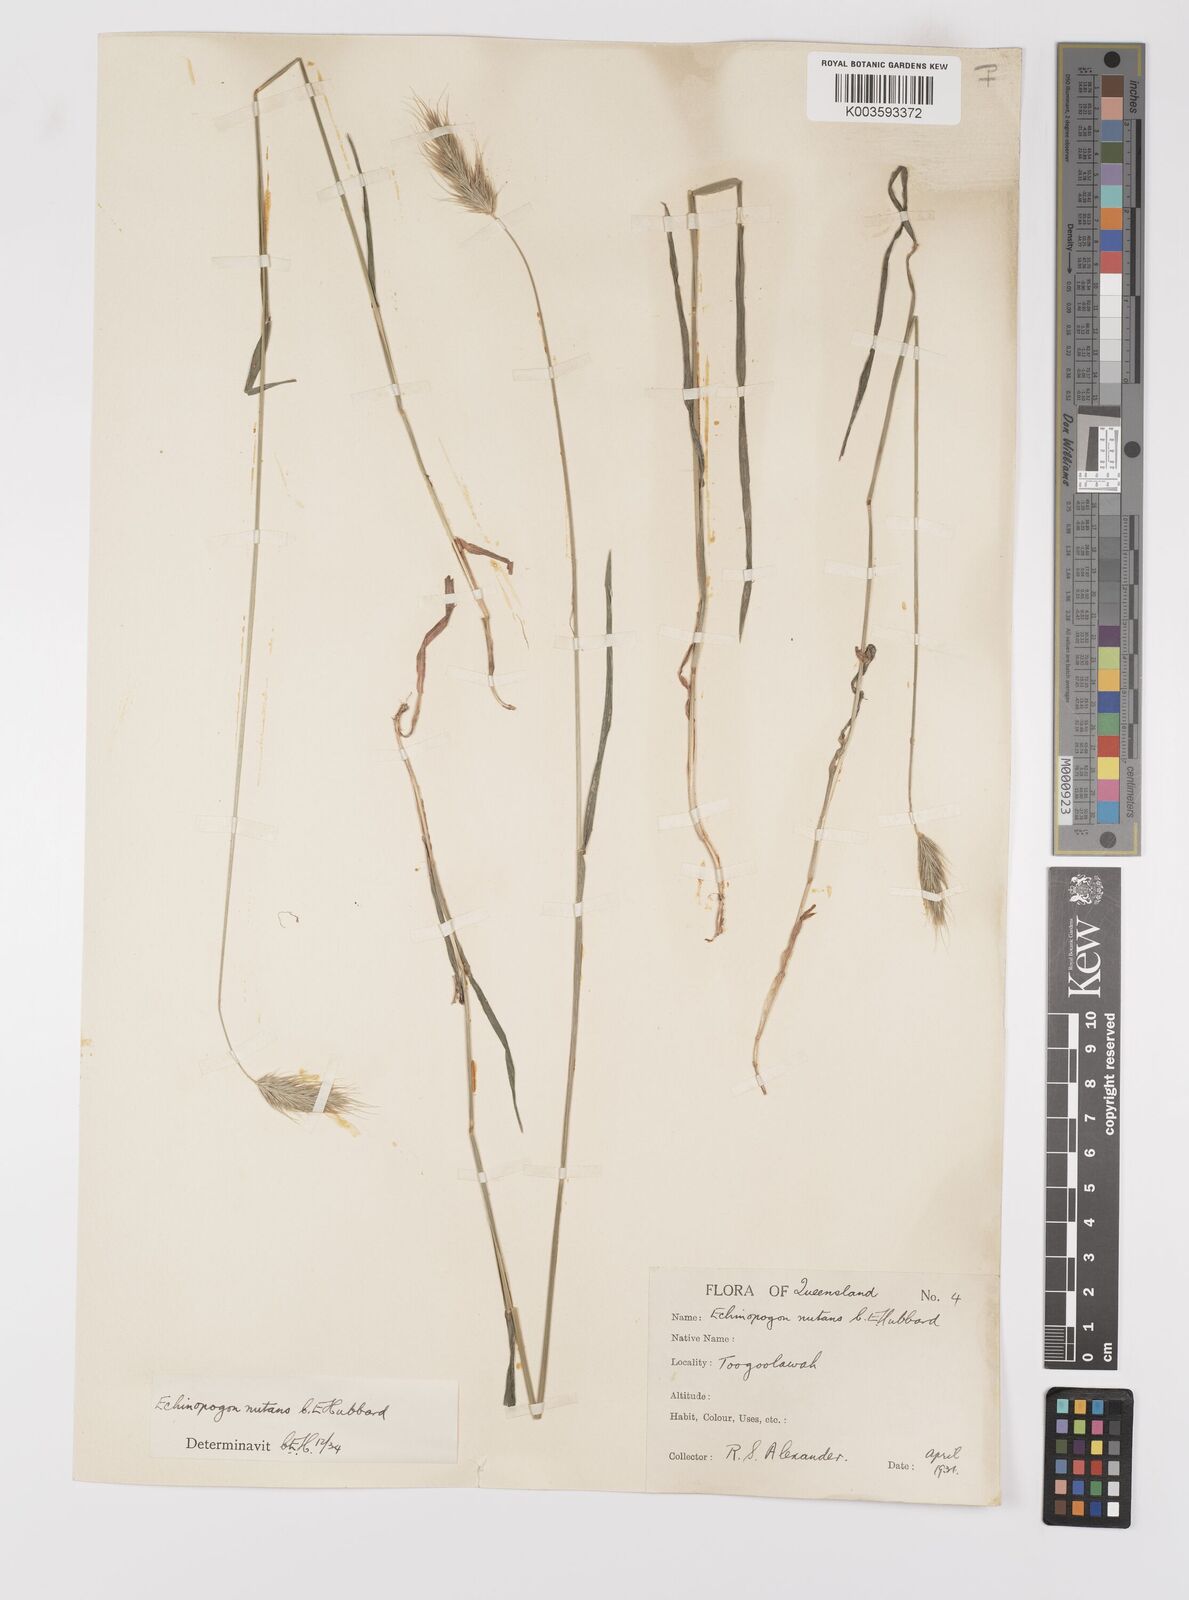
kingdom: Plantae
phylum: Tracheophyta
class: Liliopsida
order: Poales
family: Poaceae
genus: Echinopogon
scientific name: Echinopogon nutans
